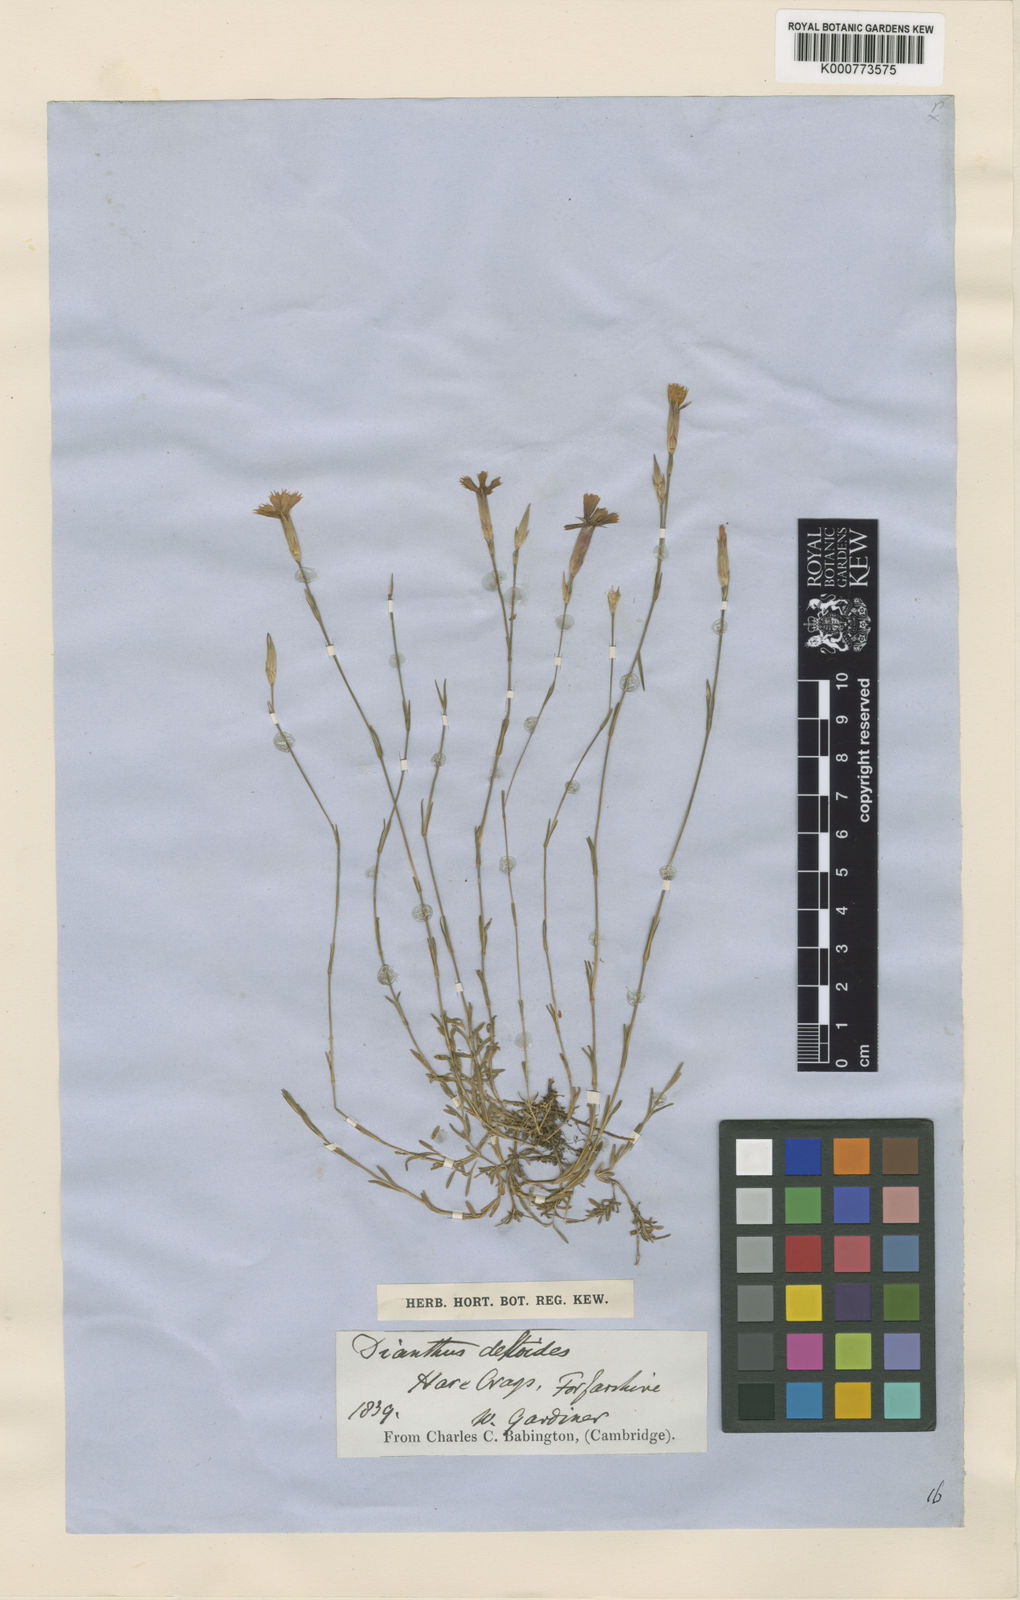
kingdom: Plantae
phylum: Tracheophyta
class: Magnoliopsida
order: Caryophyllales
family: Caryophyllaceae
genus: Dianthus
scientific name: Dianthus deltoides
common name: Maiden pink
